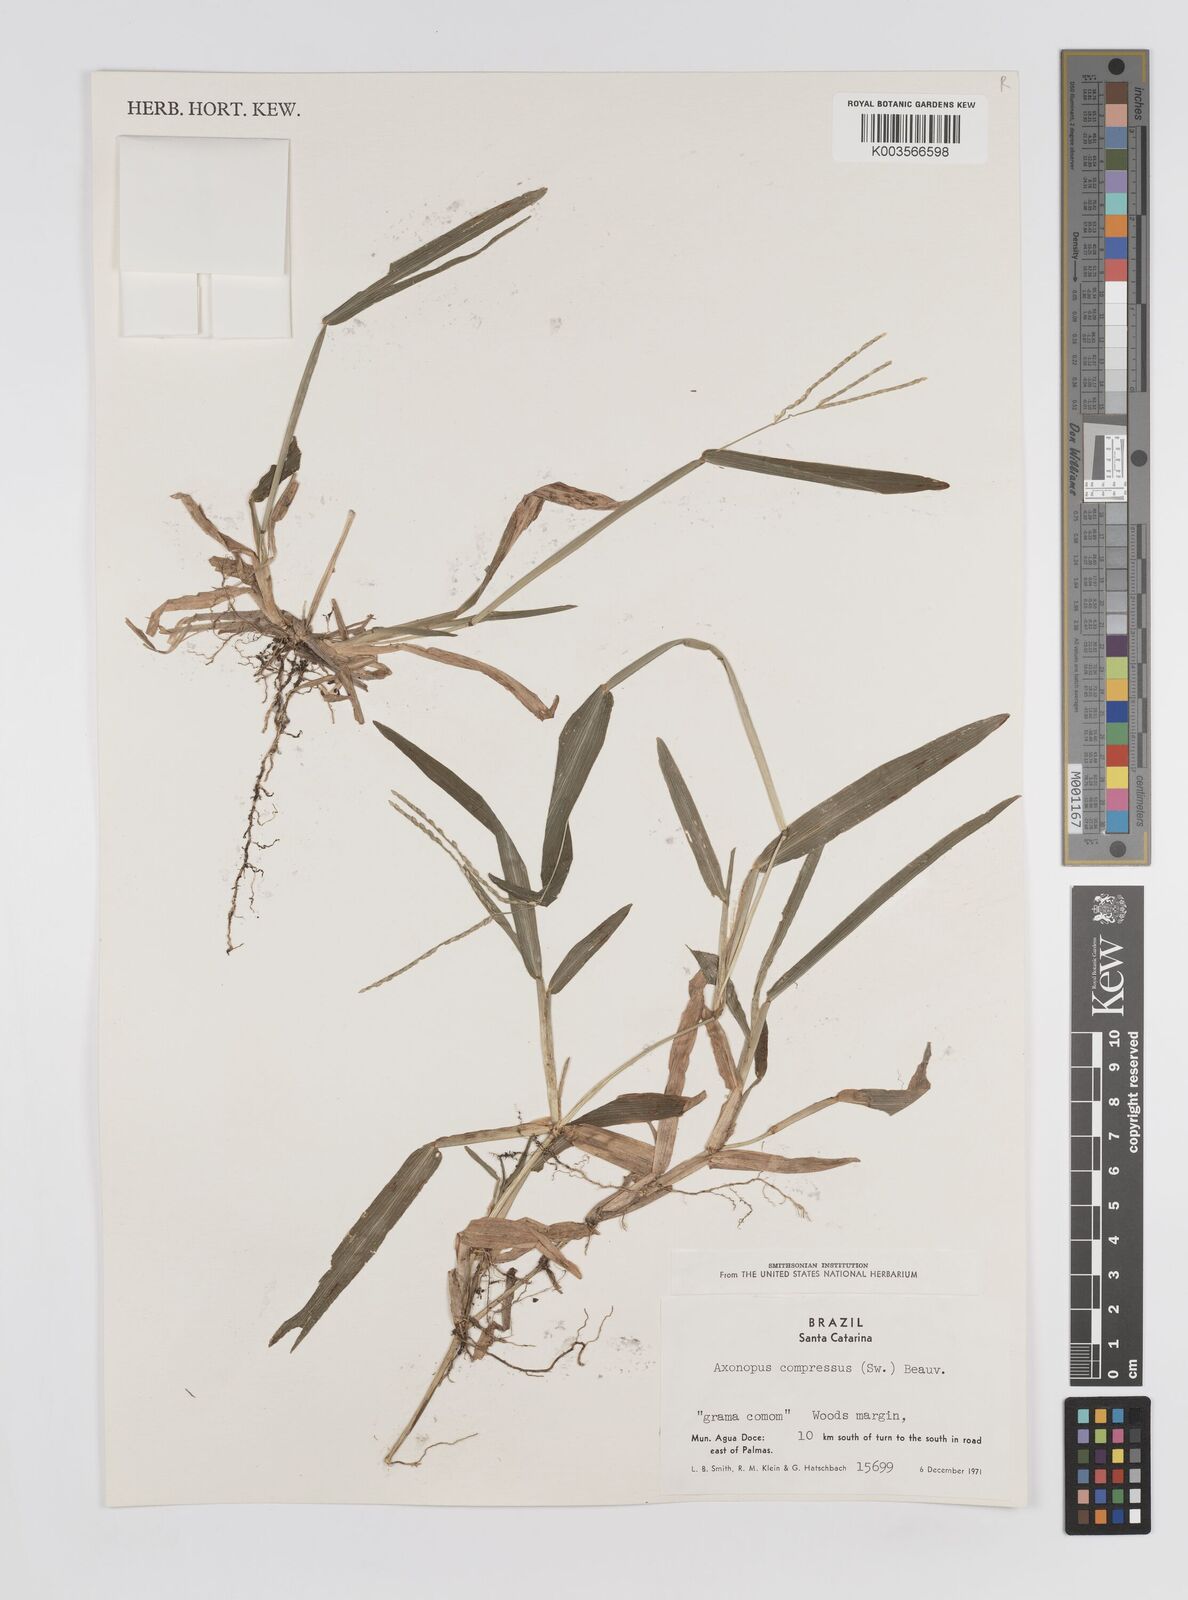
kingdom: Plantae
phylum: Tracheophyta
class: Liliopsida
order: Poales
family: Poaceae
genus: Axonopus
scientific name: Axonopus compressus
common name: American carpet grass
